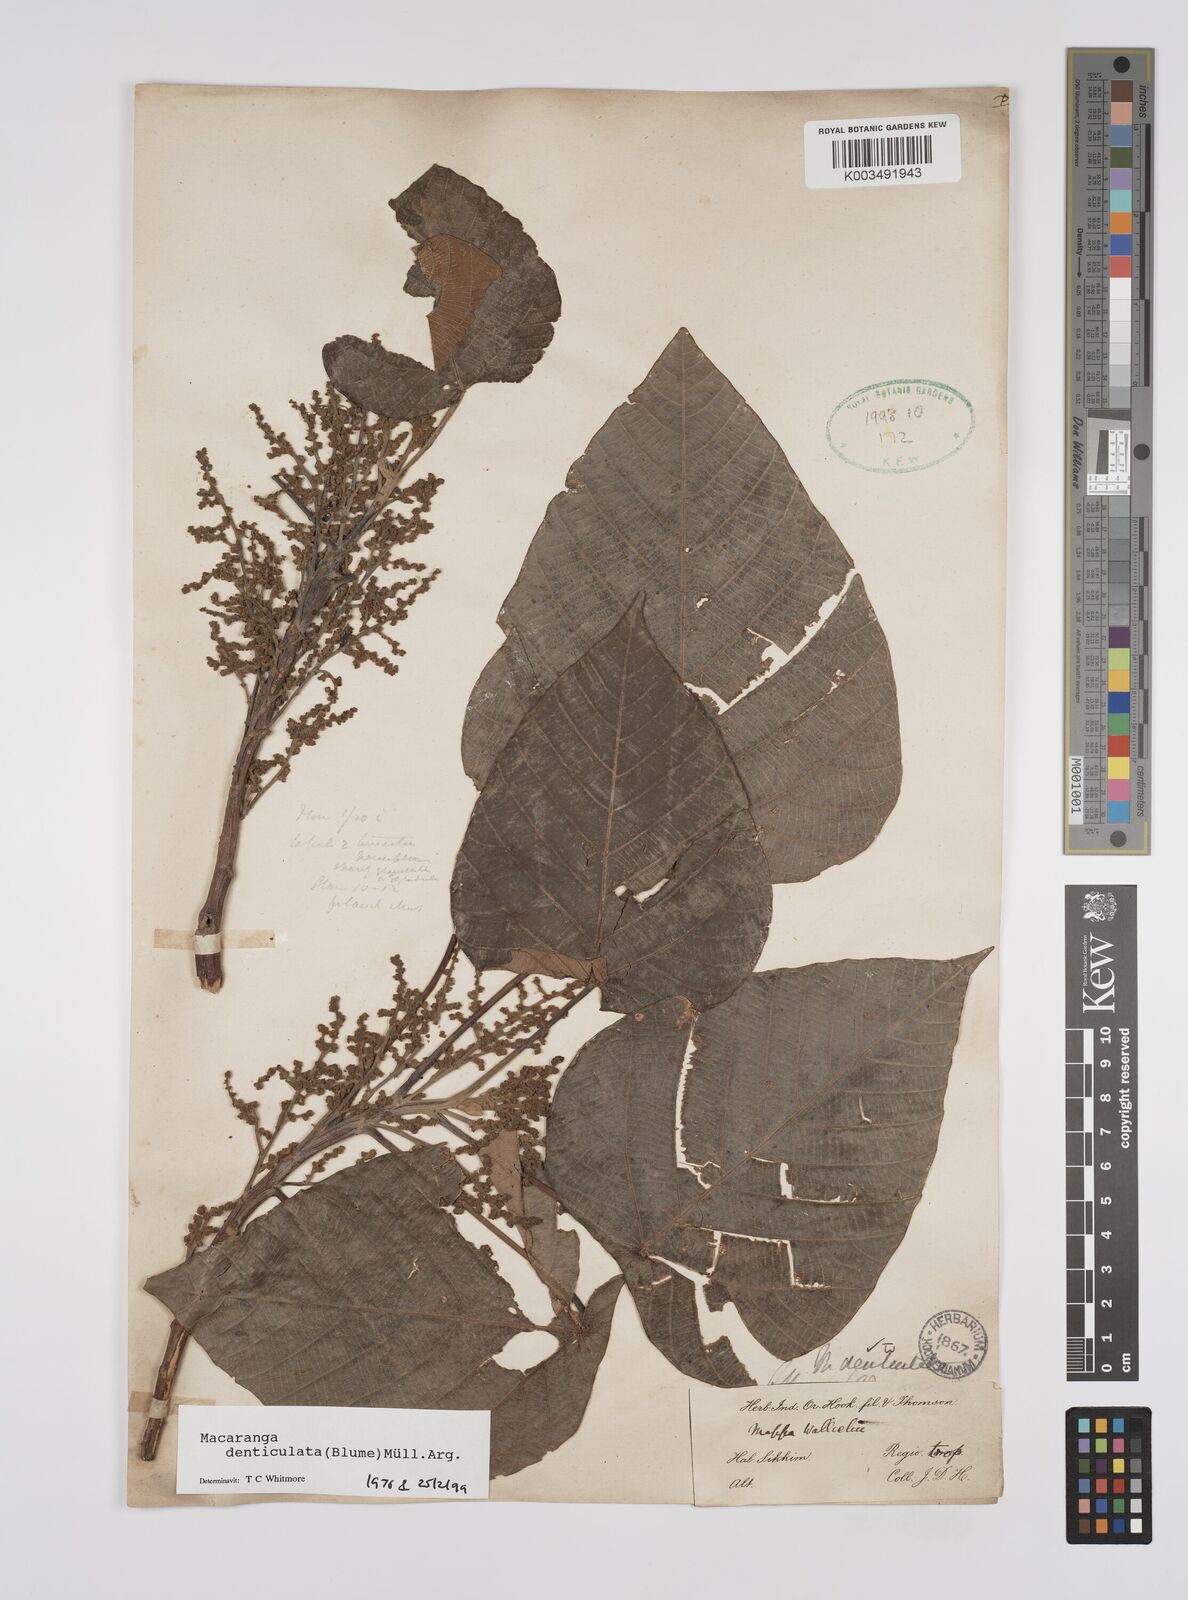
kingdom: Plantae
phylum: Tracheophyta
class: Magnoliopsida
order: Malpighiales
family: Euphorbiaceae
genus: Macaranga
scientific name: Macaranga denticulata
